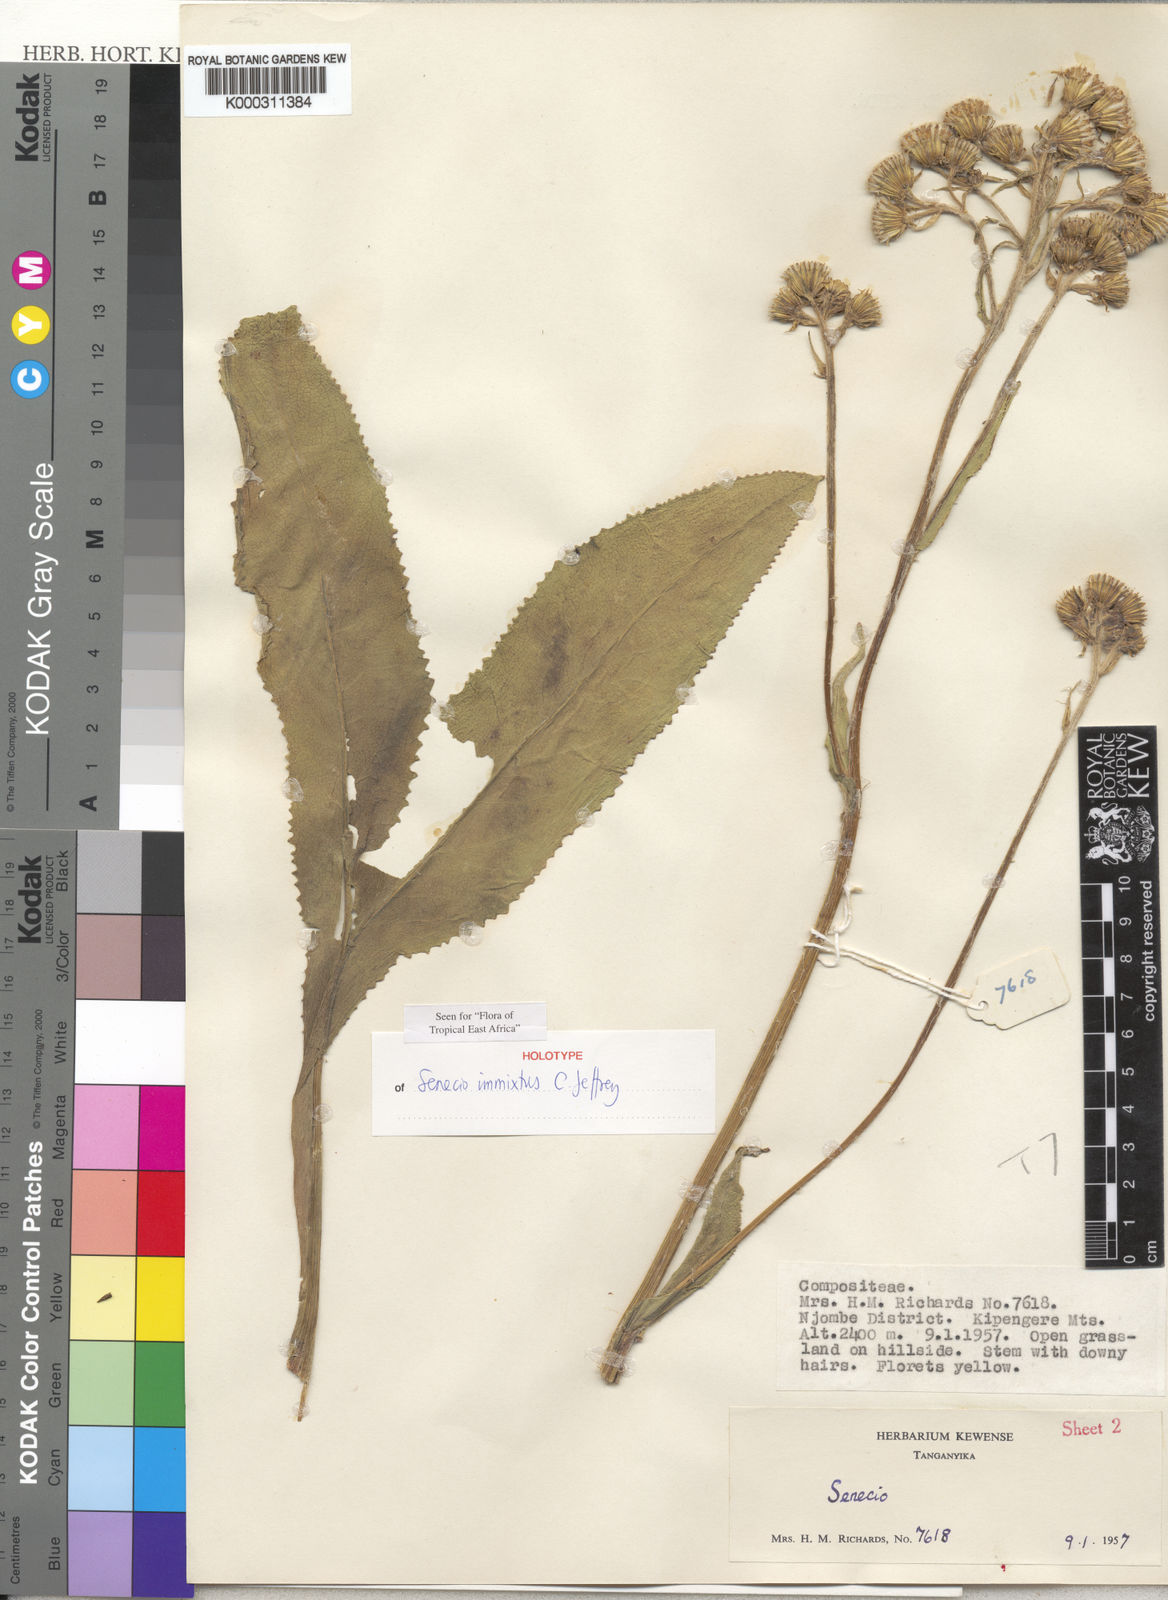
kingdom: Plantae
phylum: Tracheophyta
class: Magnoliopsida
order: Asterales
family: Asteraceae
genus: Senecio
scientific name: Senecio immixtus
